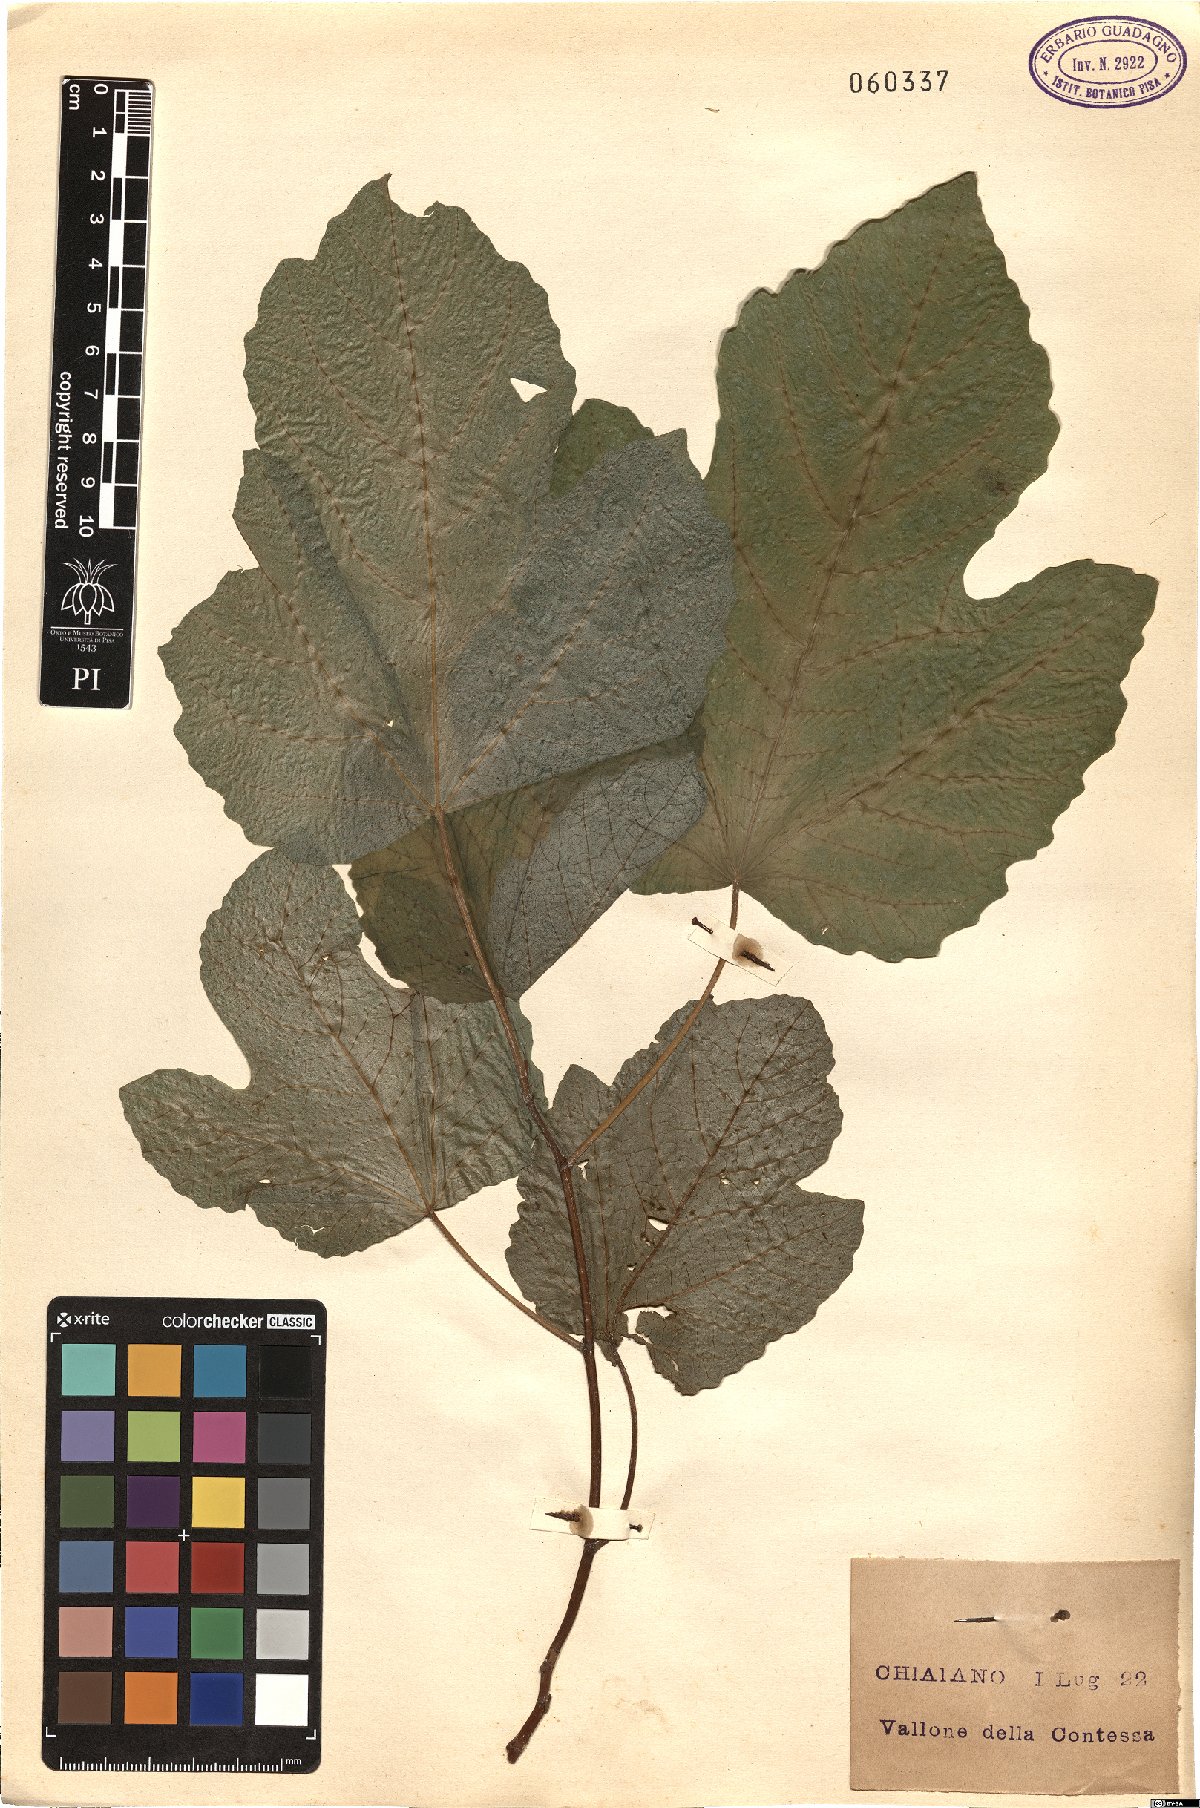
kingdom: Plantae
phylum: Tracheophyta
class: Magnoliopsida
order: Rosales
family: Moraceae
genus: Ficus
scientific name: Ficus carica
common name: Fig
